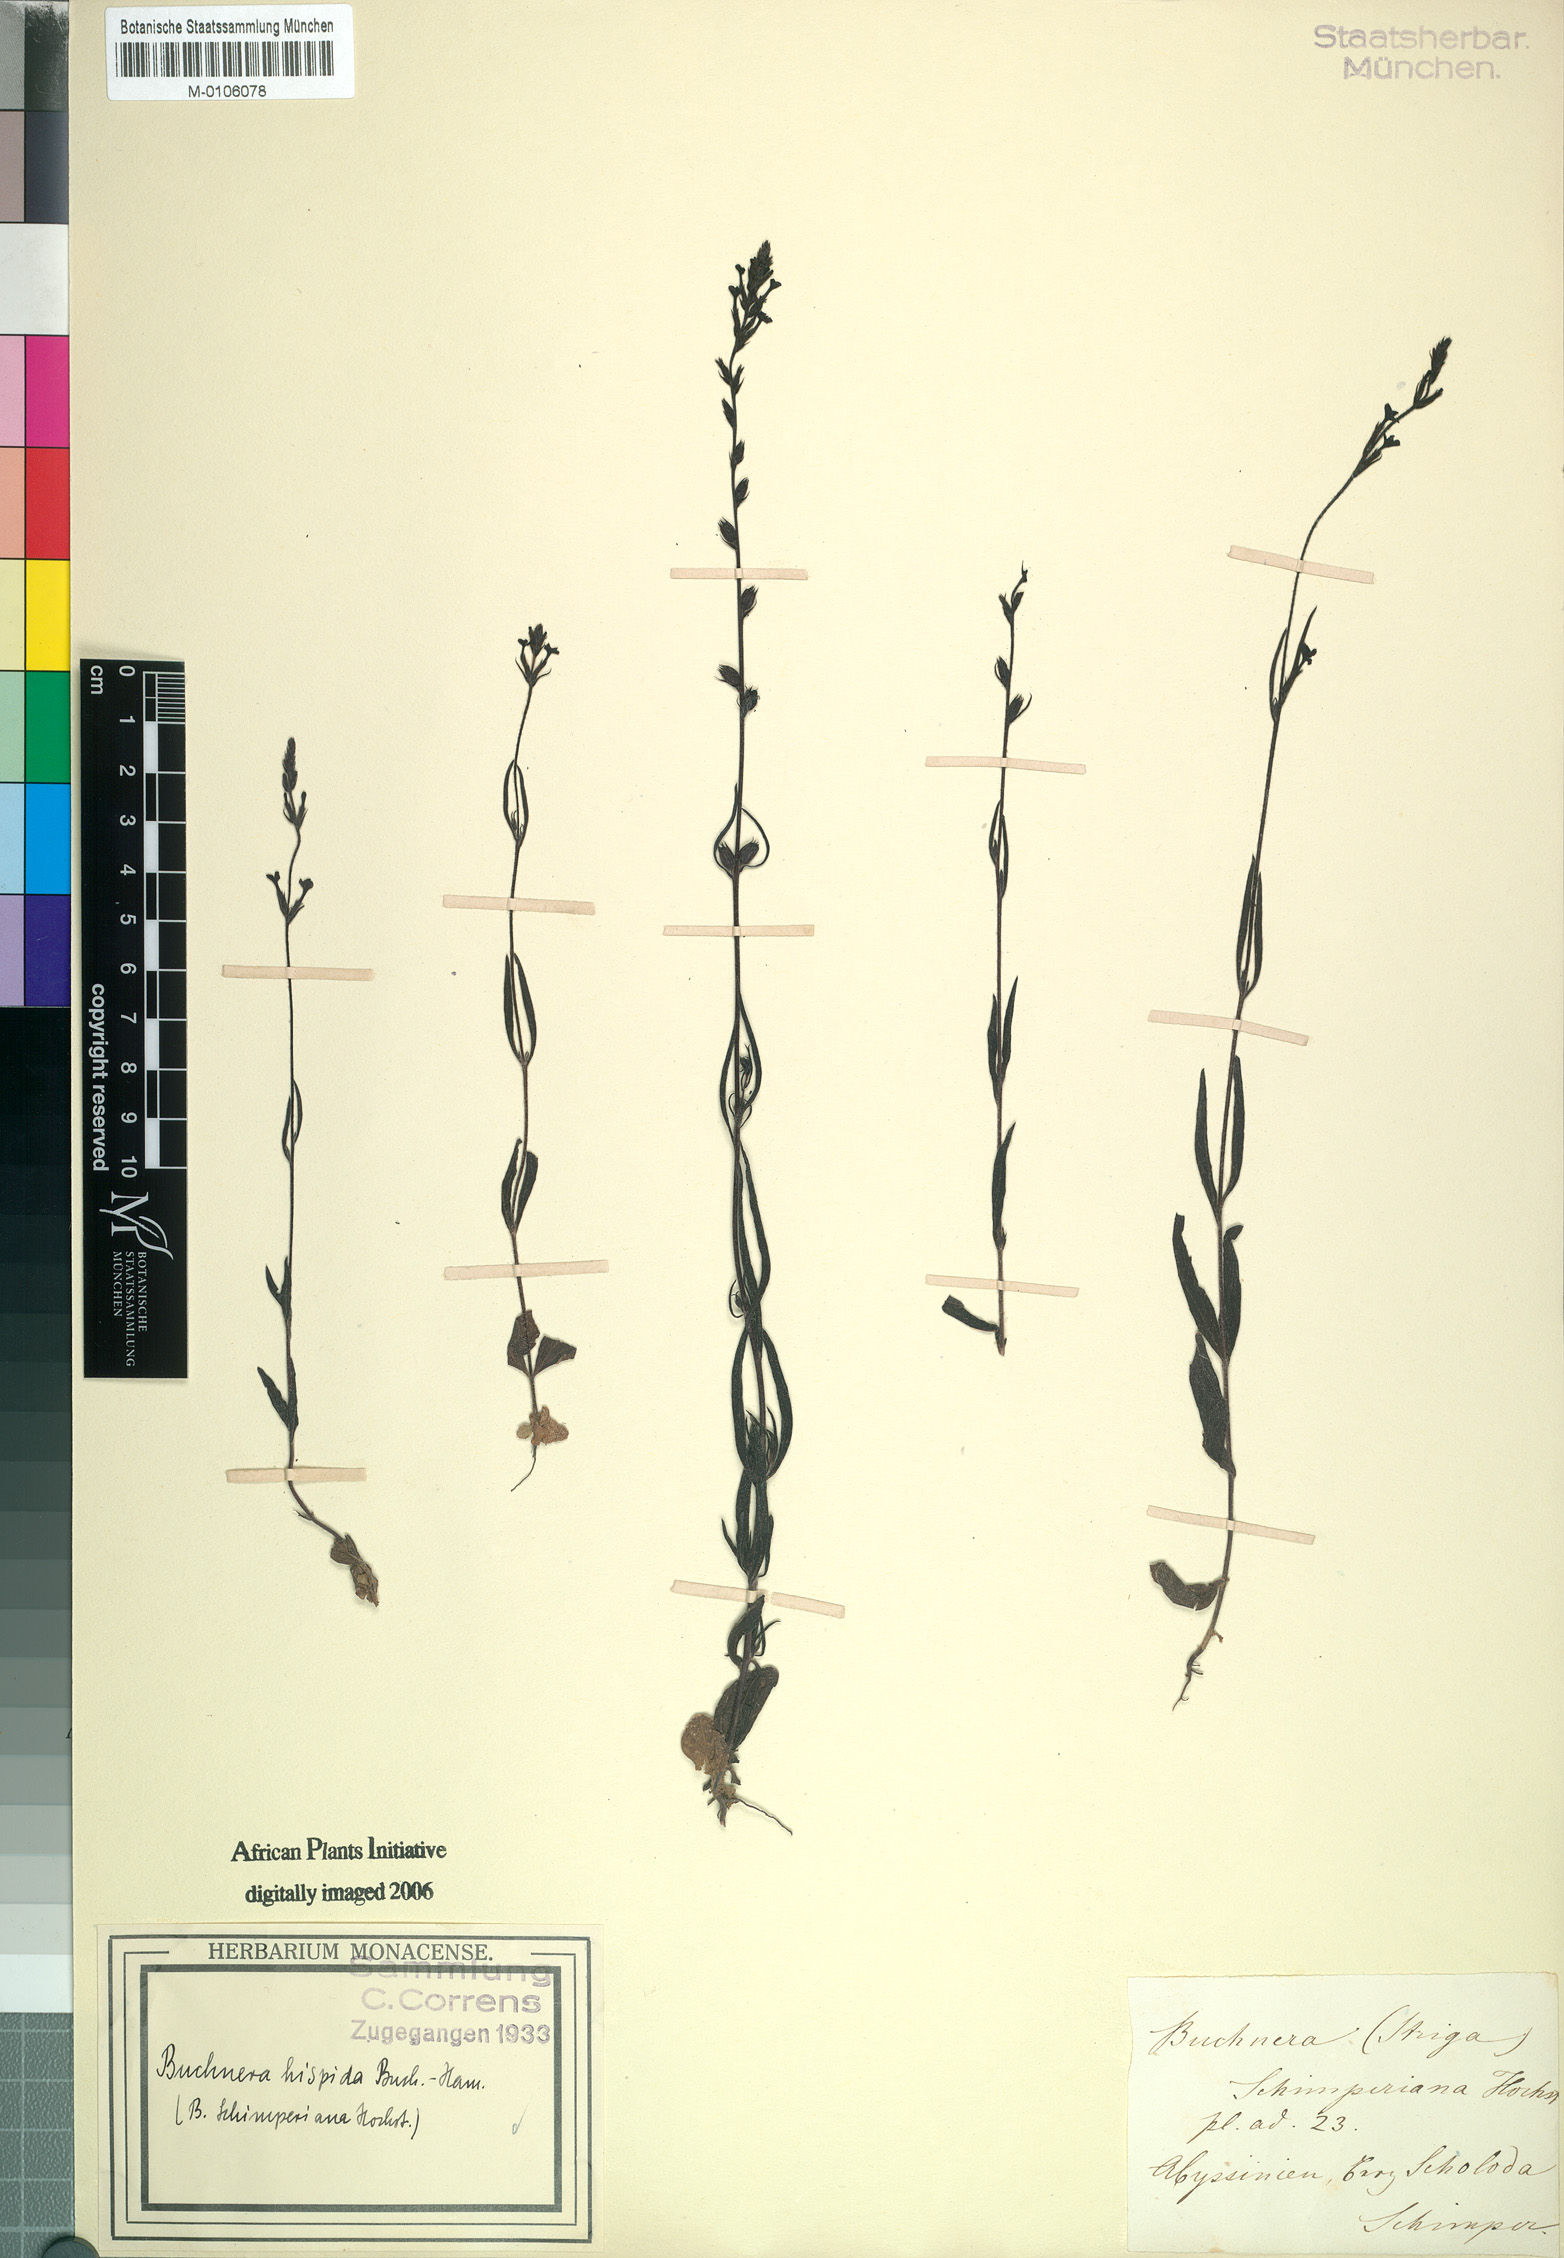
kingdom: Plantae
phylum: Tracheophyta
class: Magnoliopsida
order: Lamiales
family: Orobanchaceae
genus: Buchnera
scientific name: Buchnera hispida
